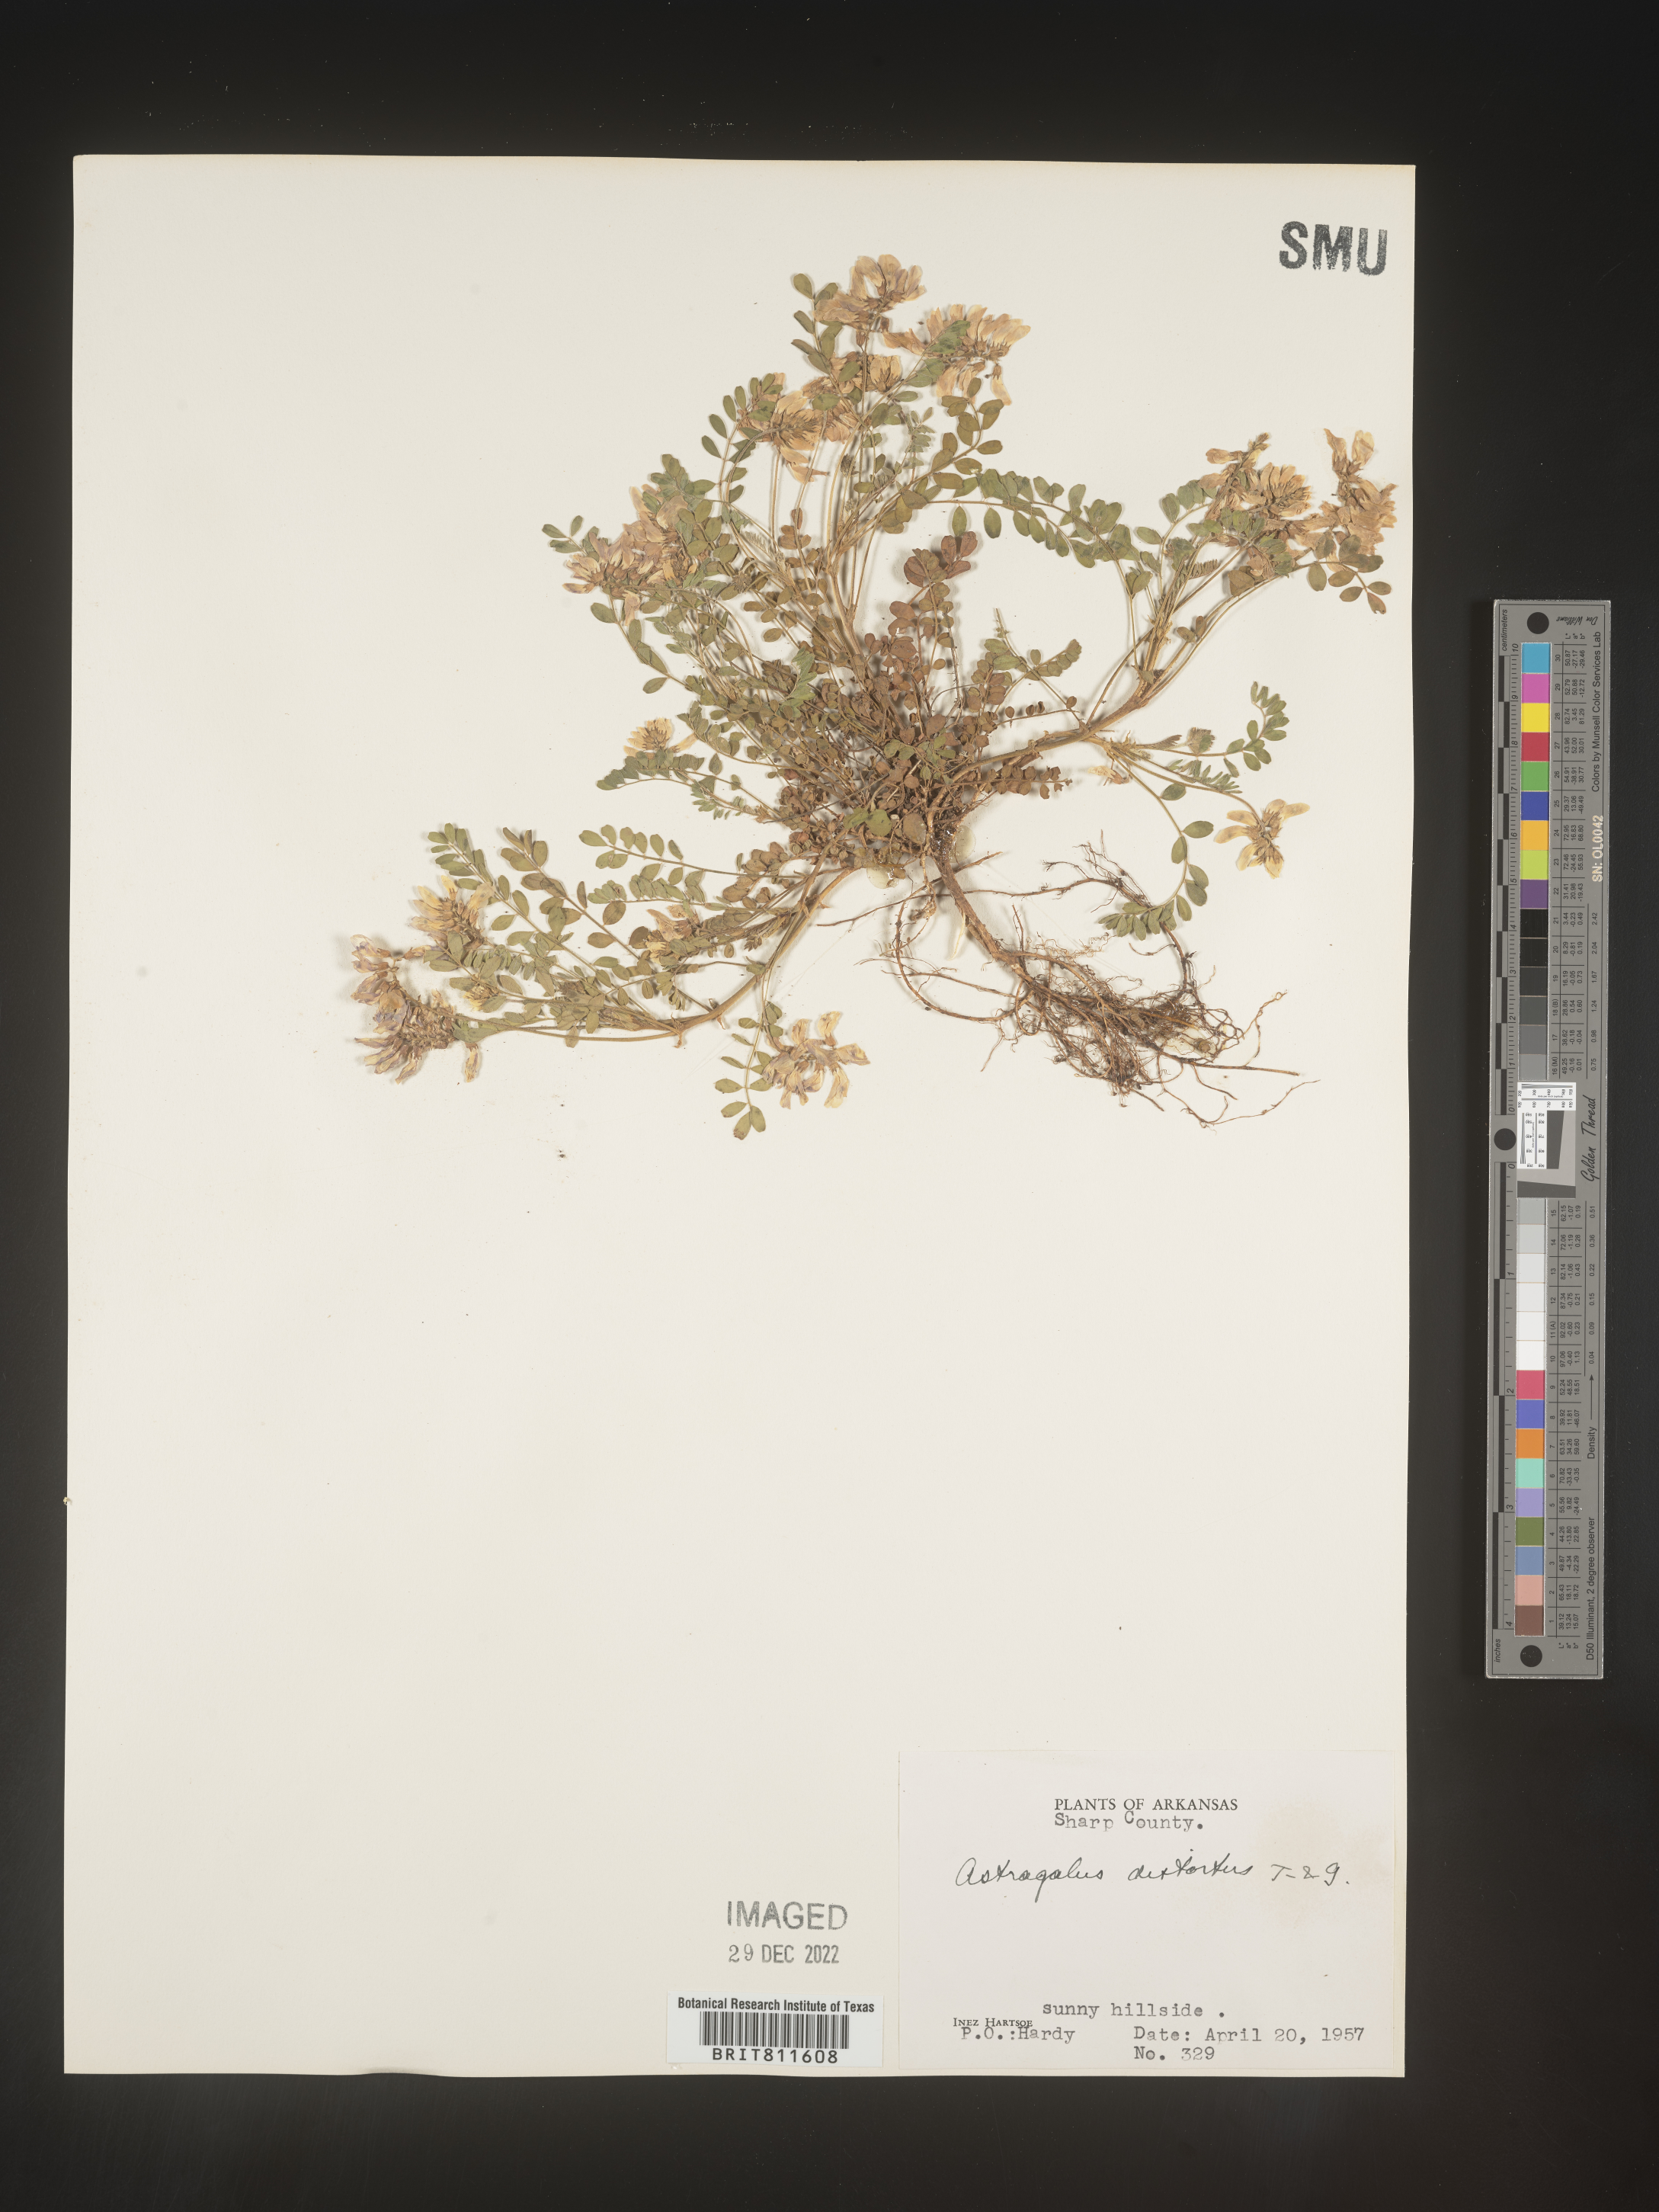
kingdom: Plantae
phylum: Tracheophyta
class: Magnoliopsida
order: Fabales
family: Fabaceae
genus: Astragalus
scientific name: Astragalus distortus
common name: Ozark milk-vetch
